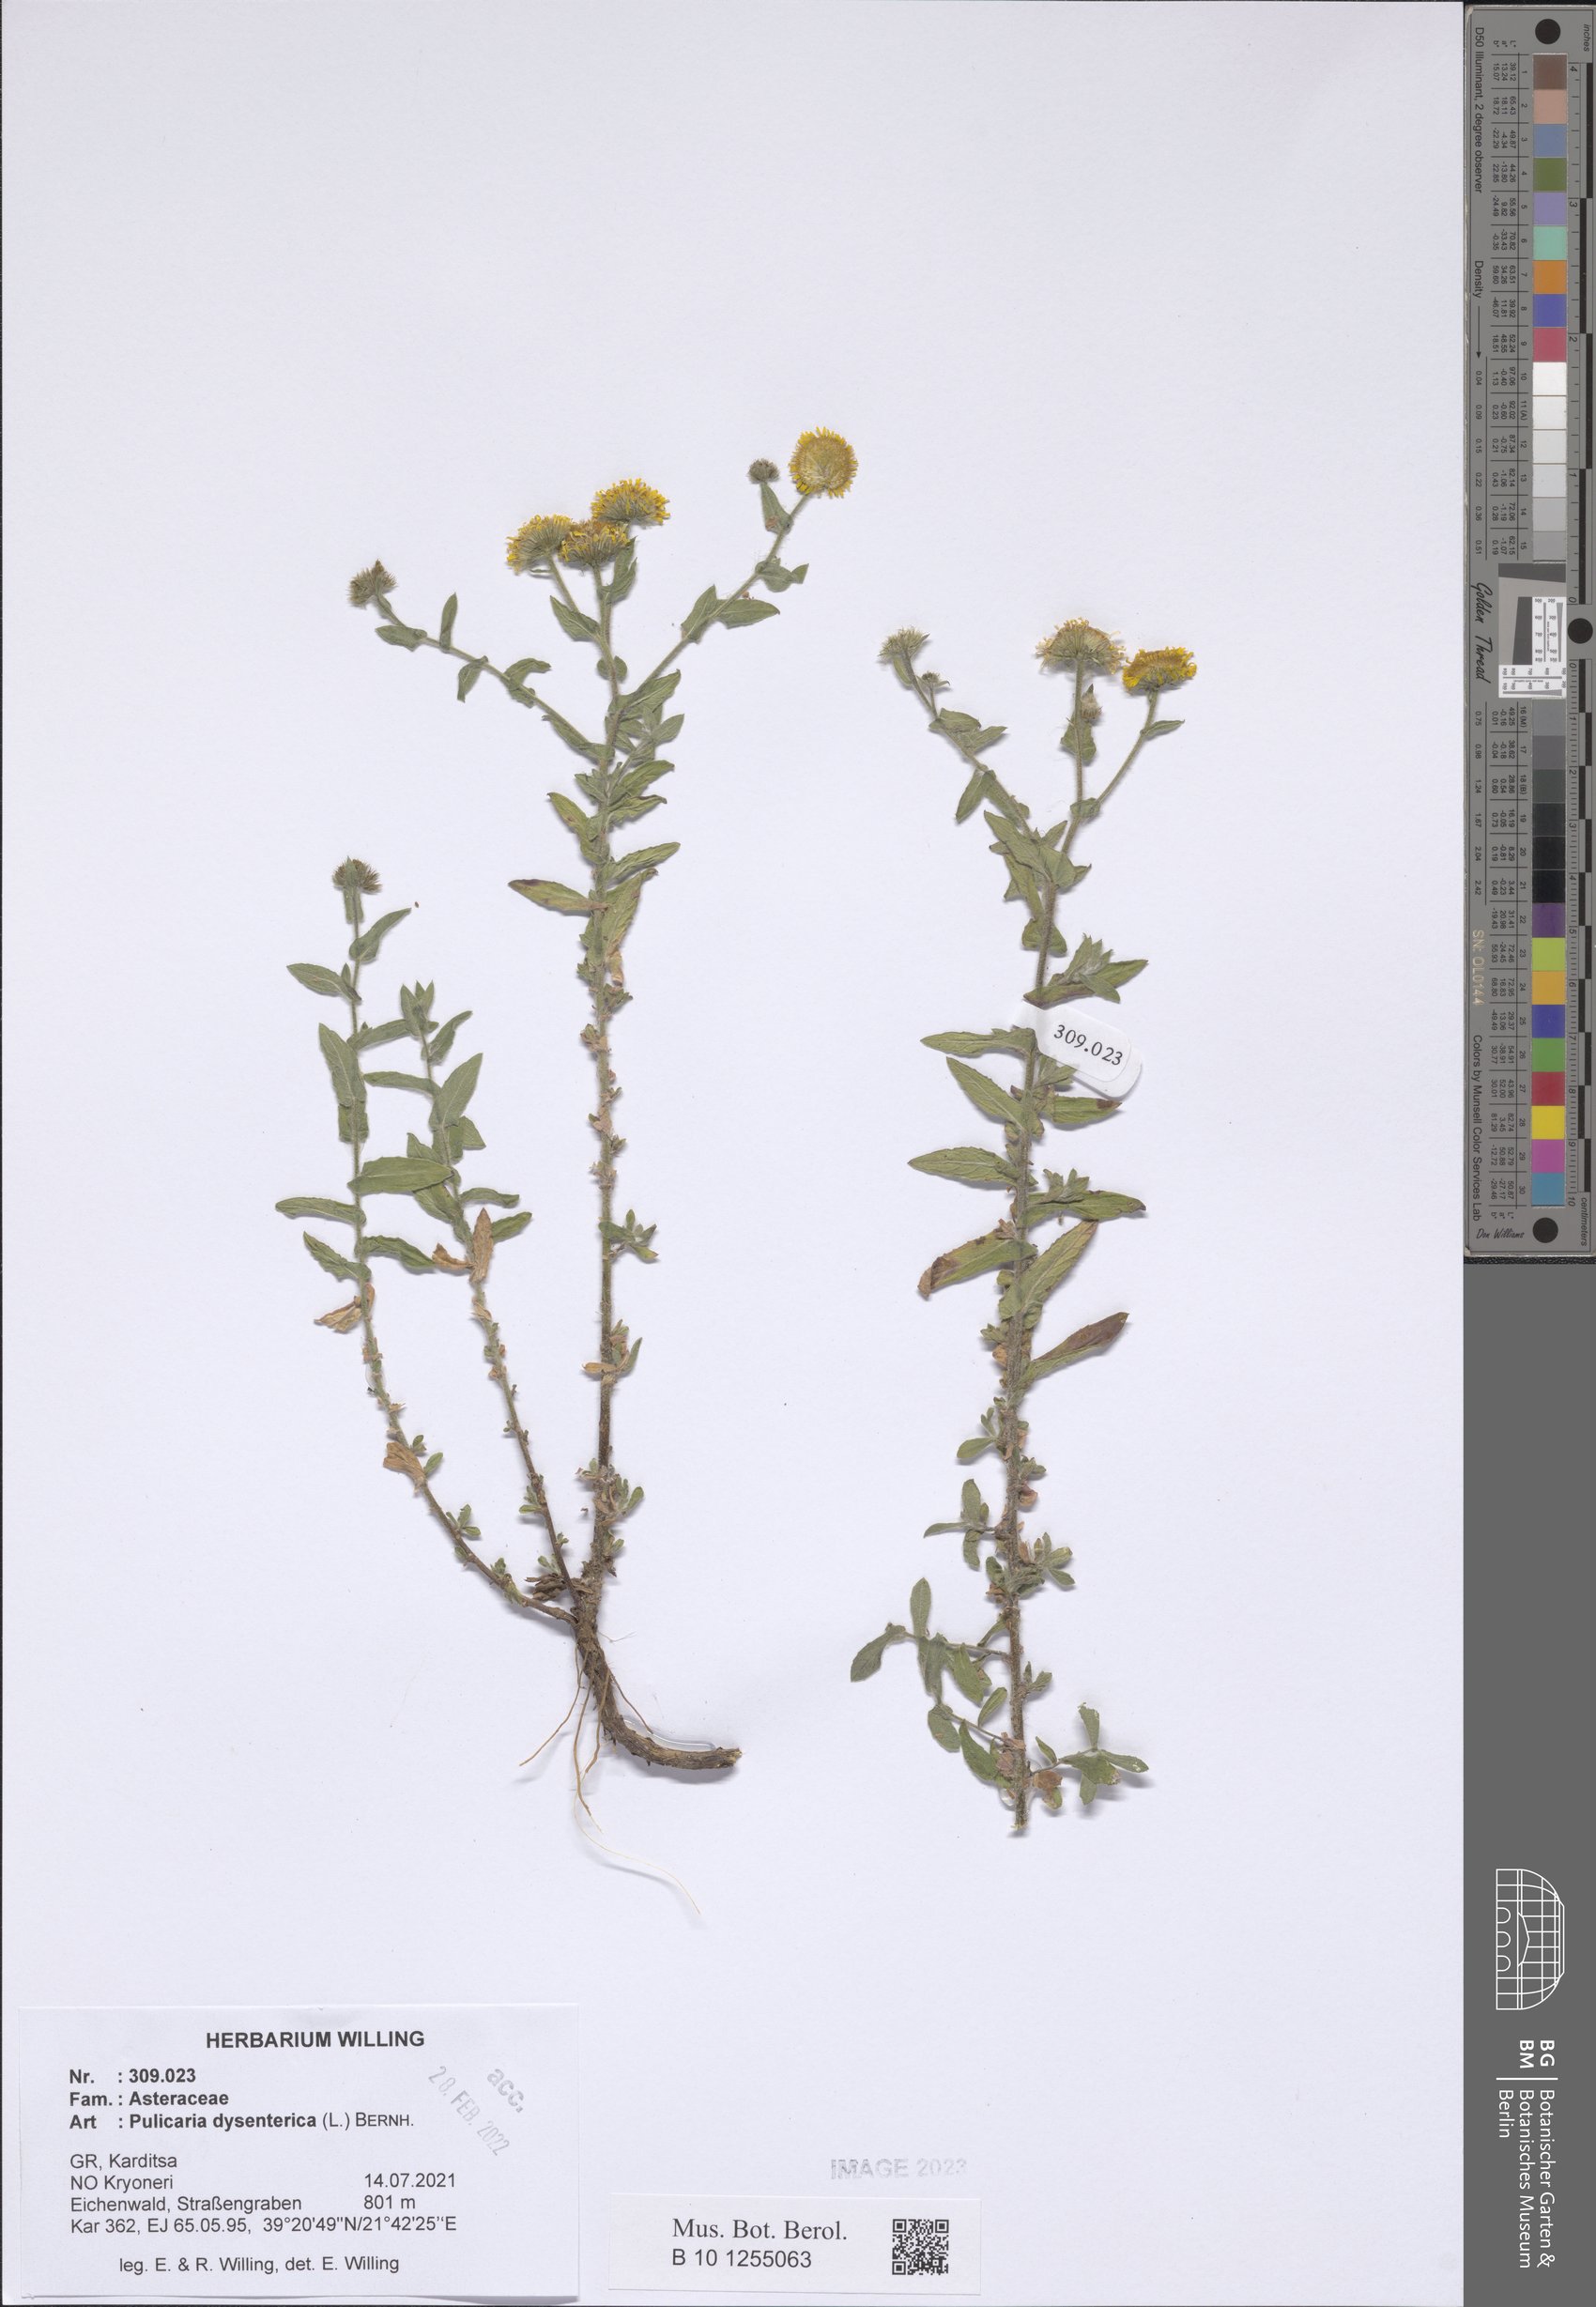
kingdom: Plantae
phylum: Tracheophyta
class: Magnoliopsida
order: Asterales
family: Asteraceae
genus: Pulicaria
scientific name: Pulicaria dysenterica
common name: Common fleabane
